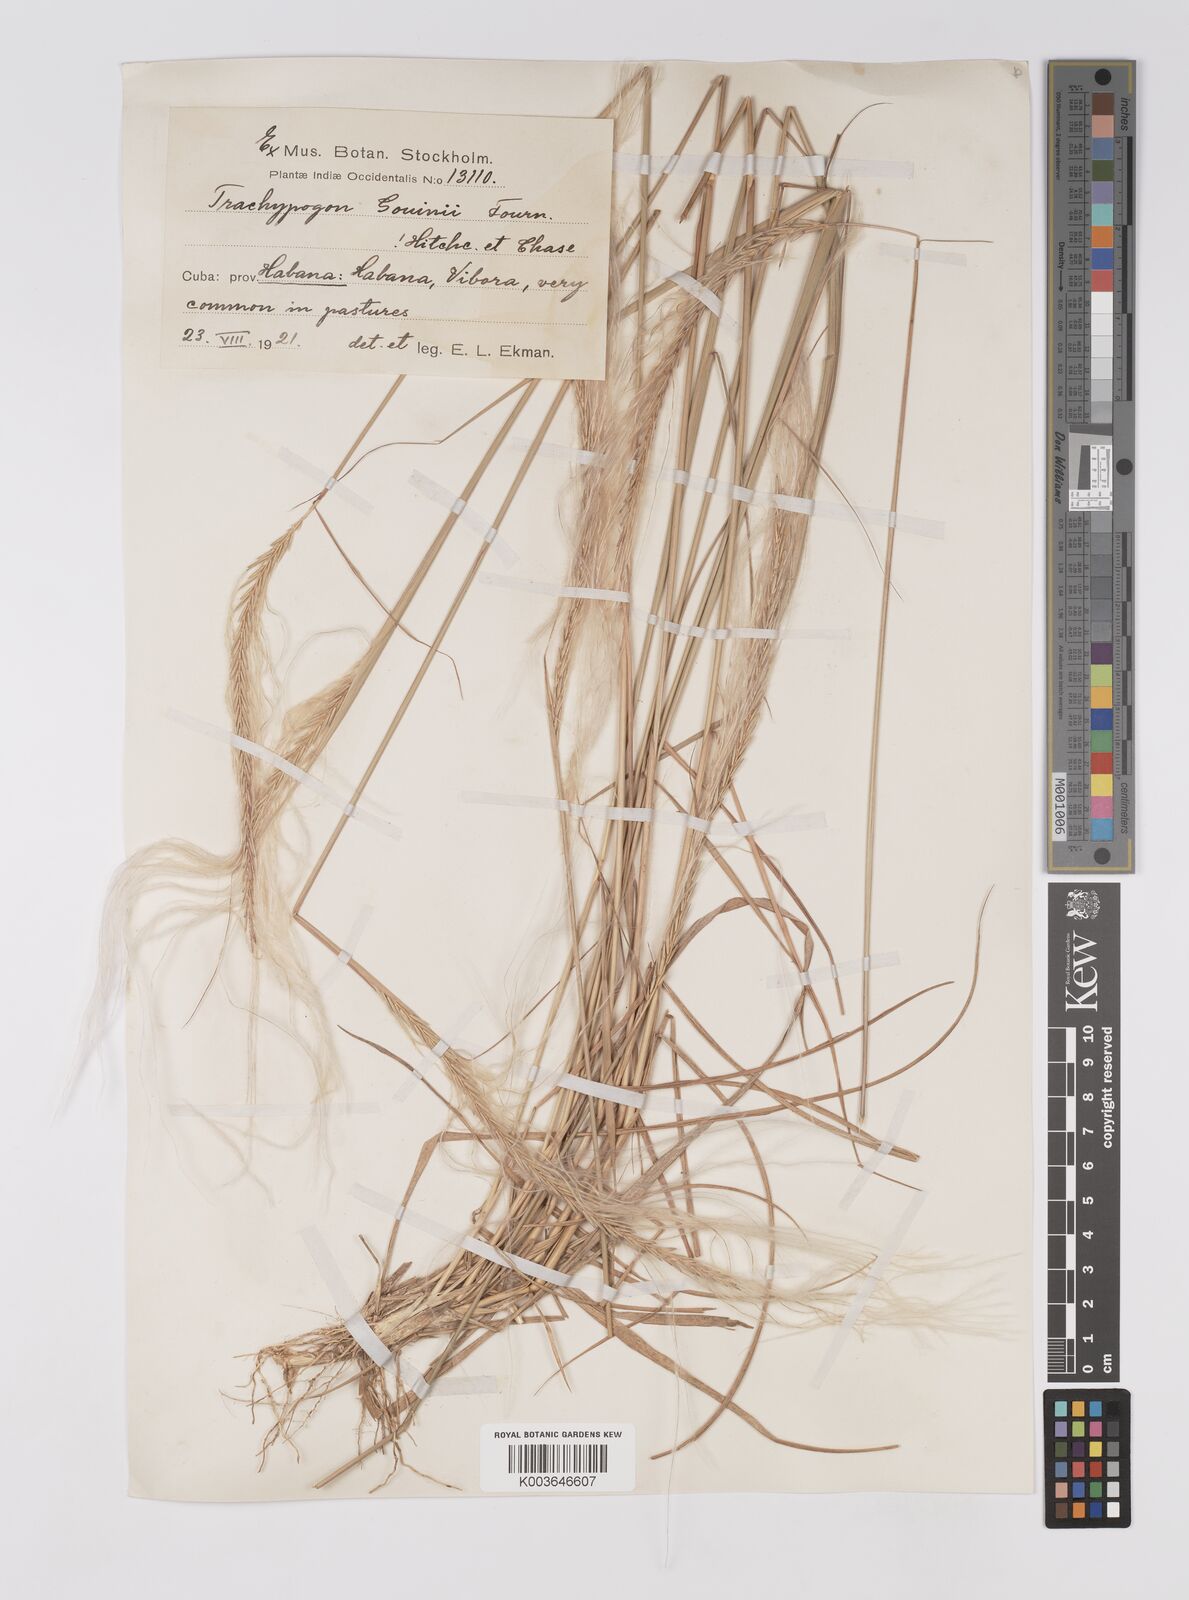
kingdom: Plantae
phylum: Tracheophyta
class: Liliopsida
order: Poales
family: Poaceae
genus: Trachypogon
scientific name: Trachypogon spicatus
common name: Crinkle-awn
